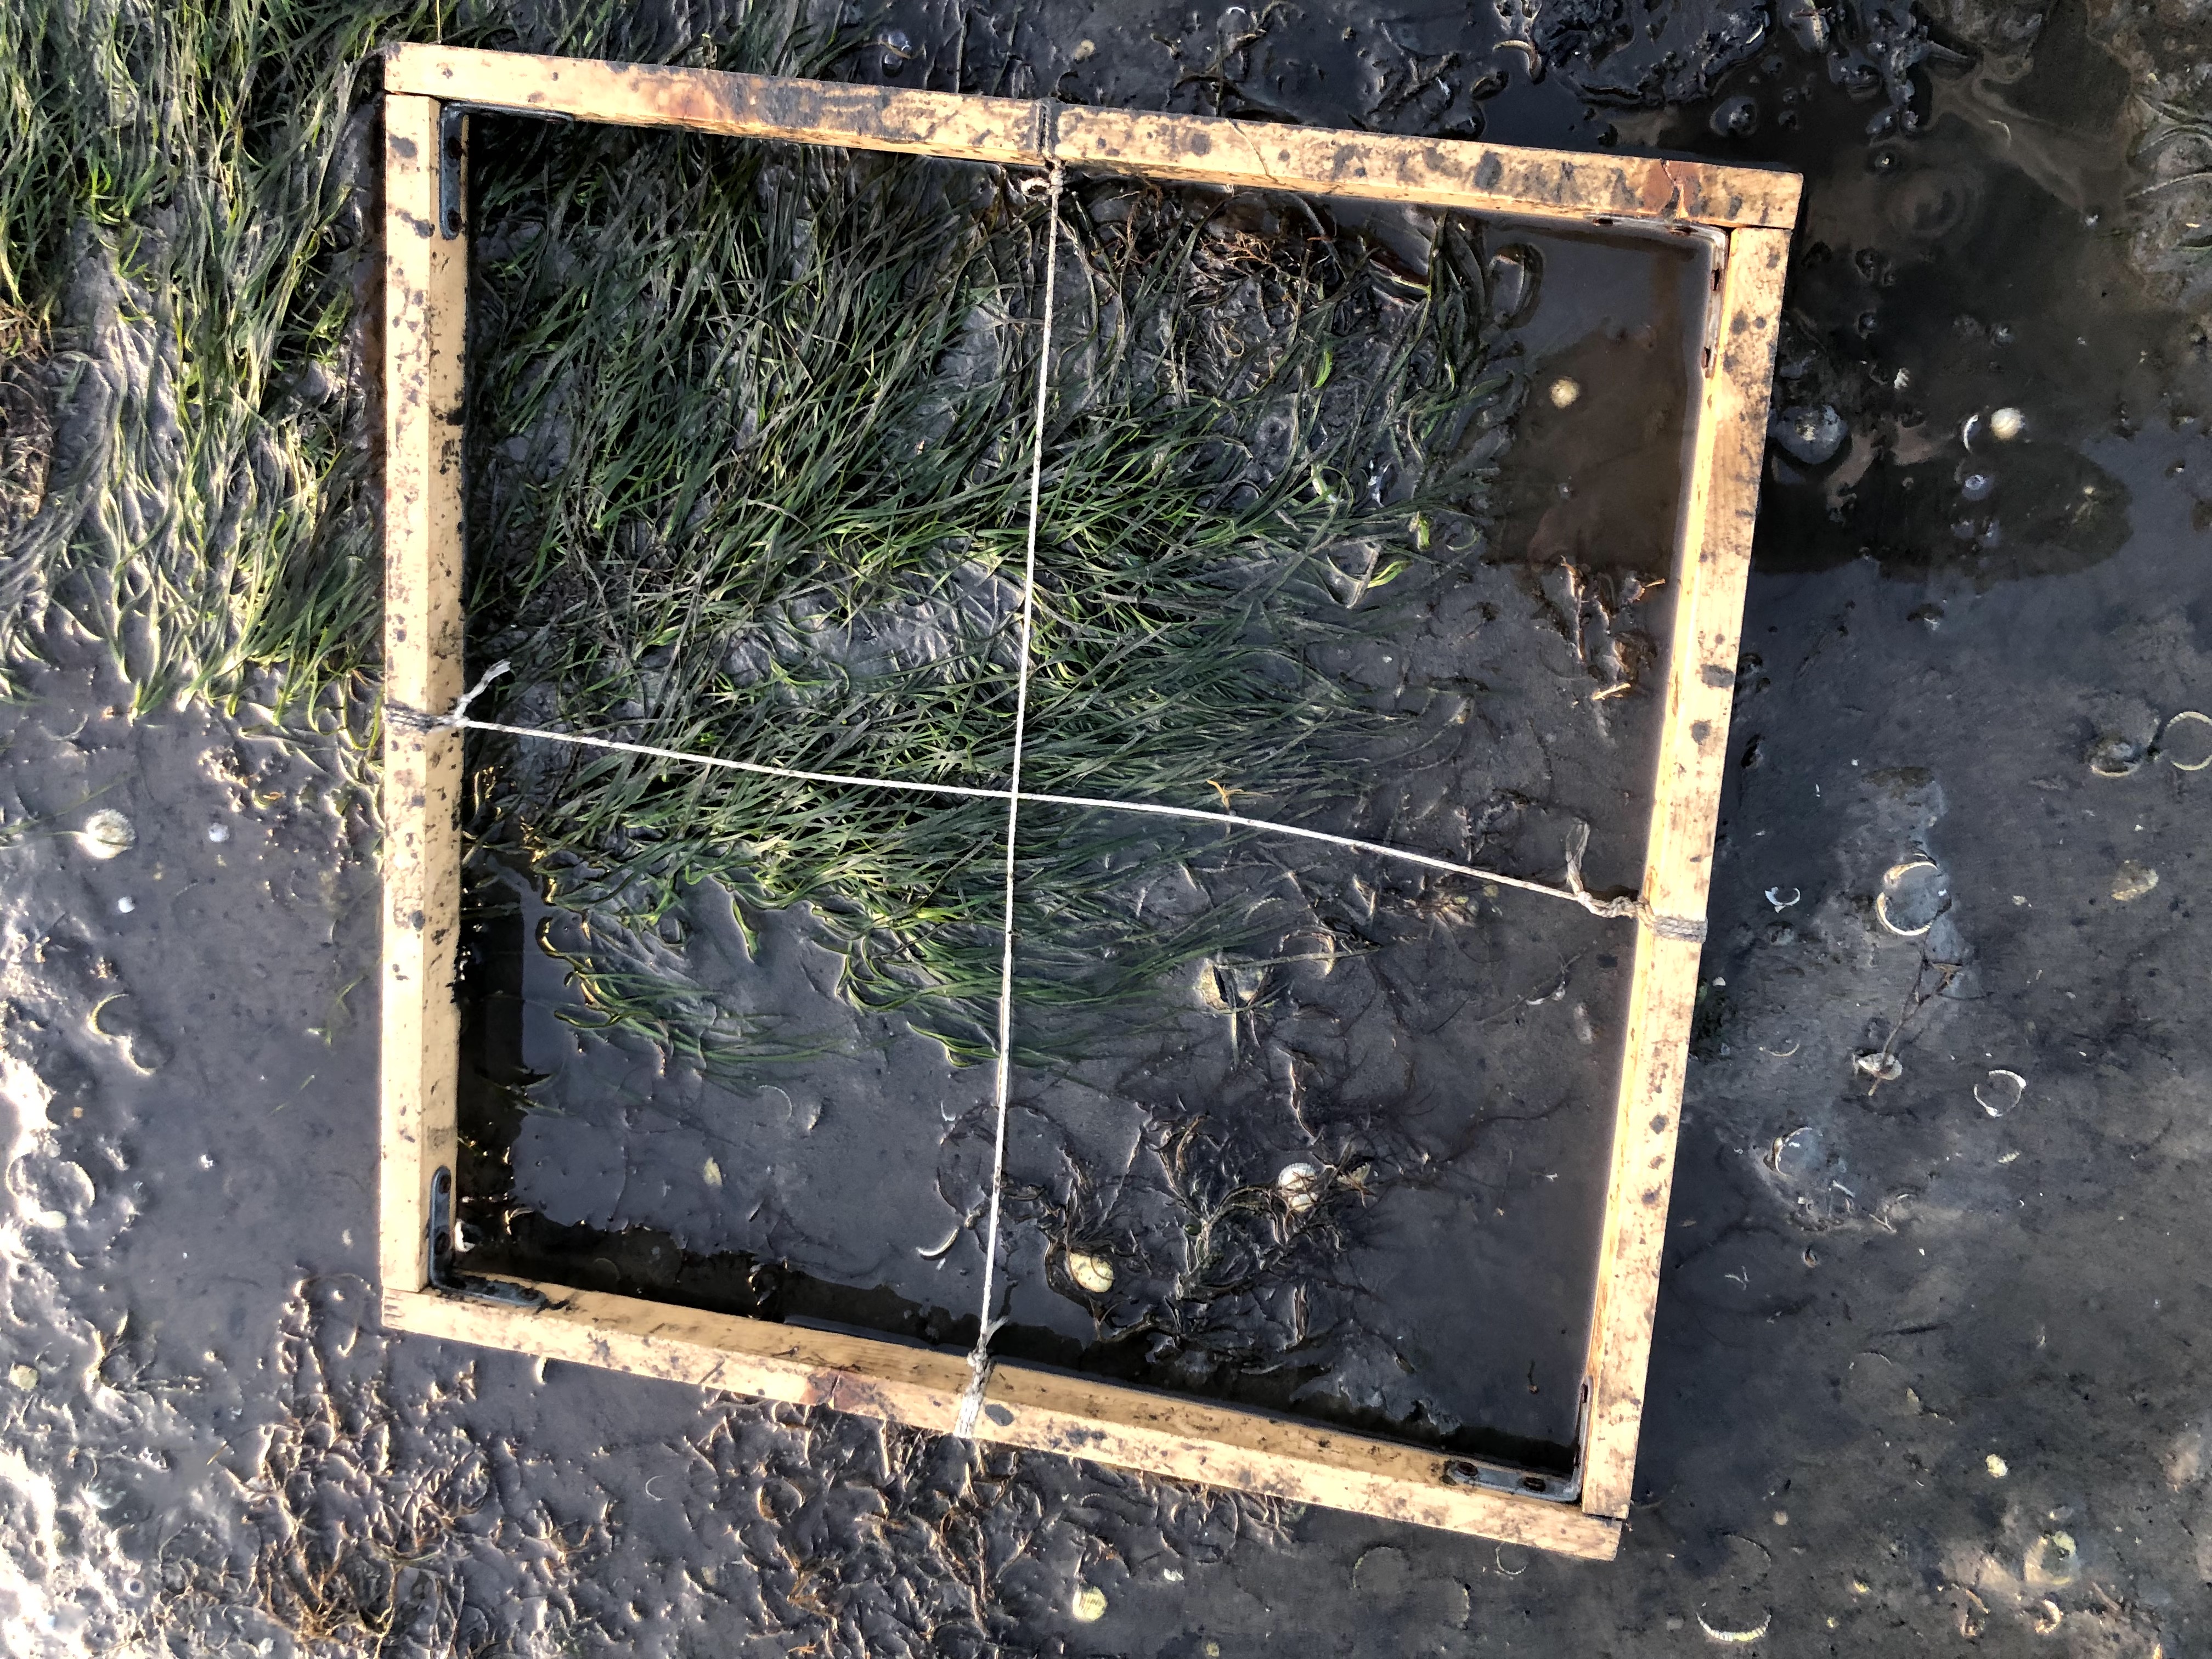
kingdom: Plantae
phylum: Tracheophyta
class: Liliopsida
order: Alismatales
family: Zosteraceae
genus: Zostera
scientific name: Zostera noltii
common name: Dwarf eelgrass
